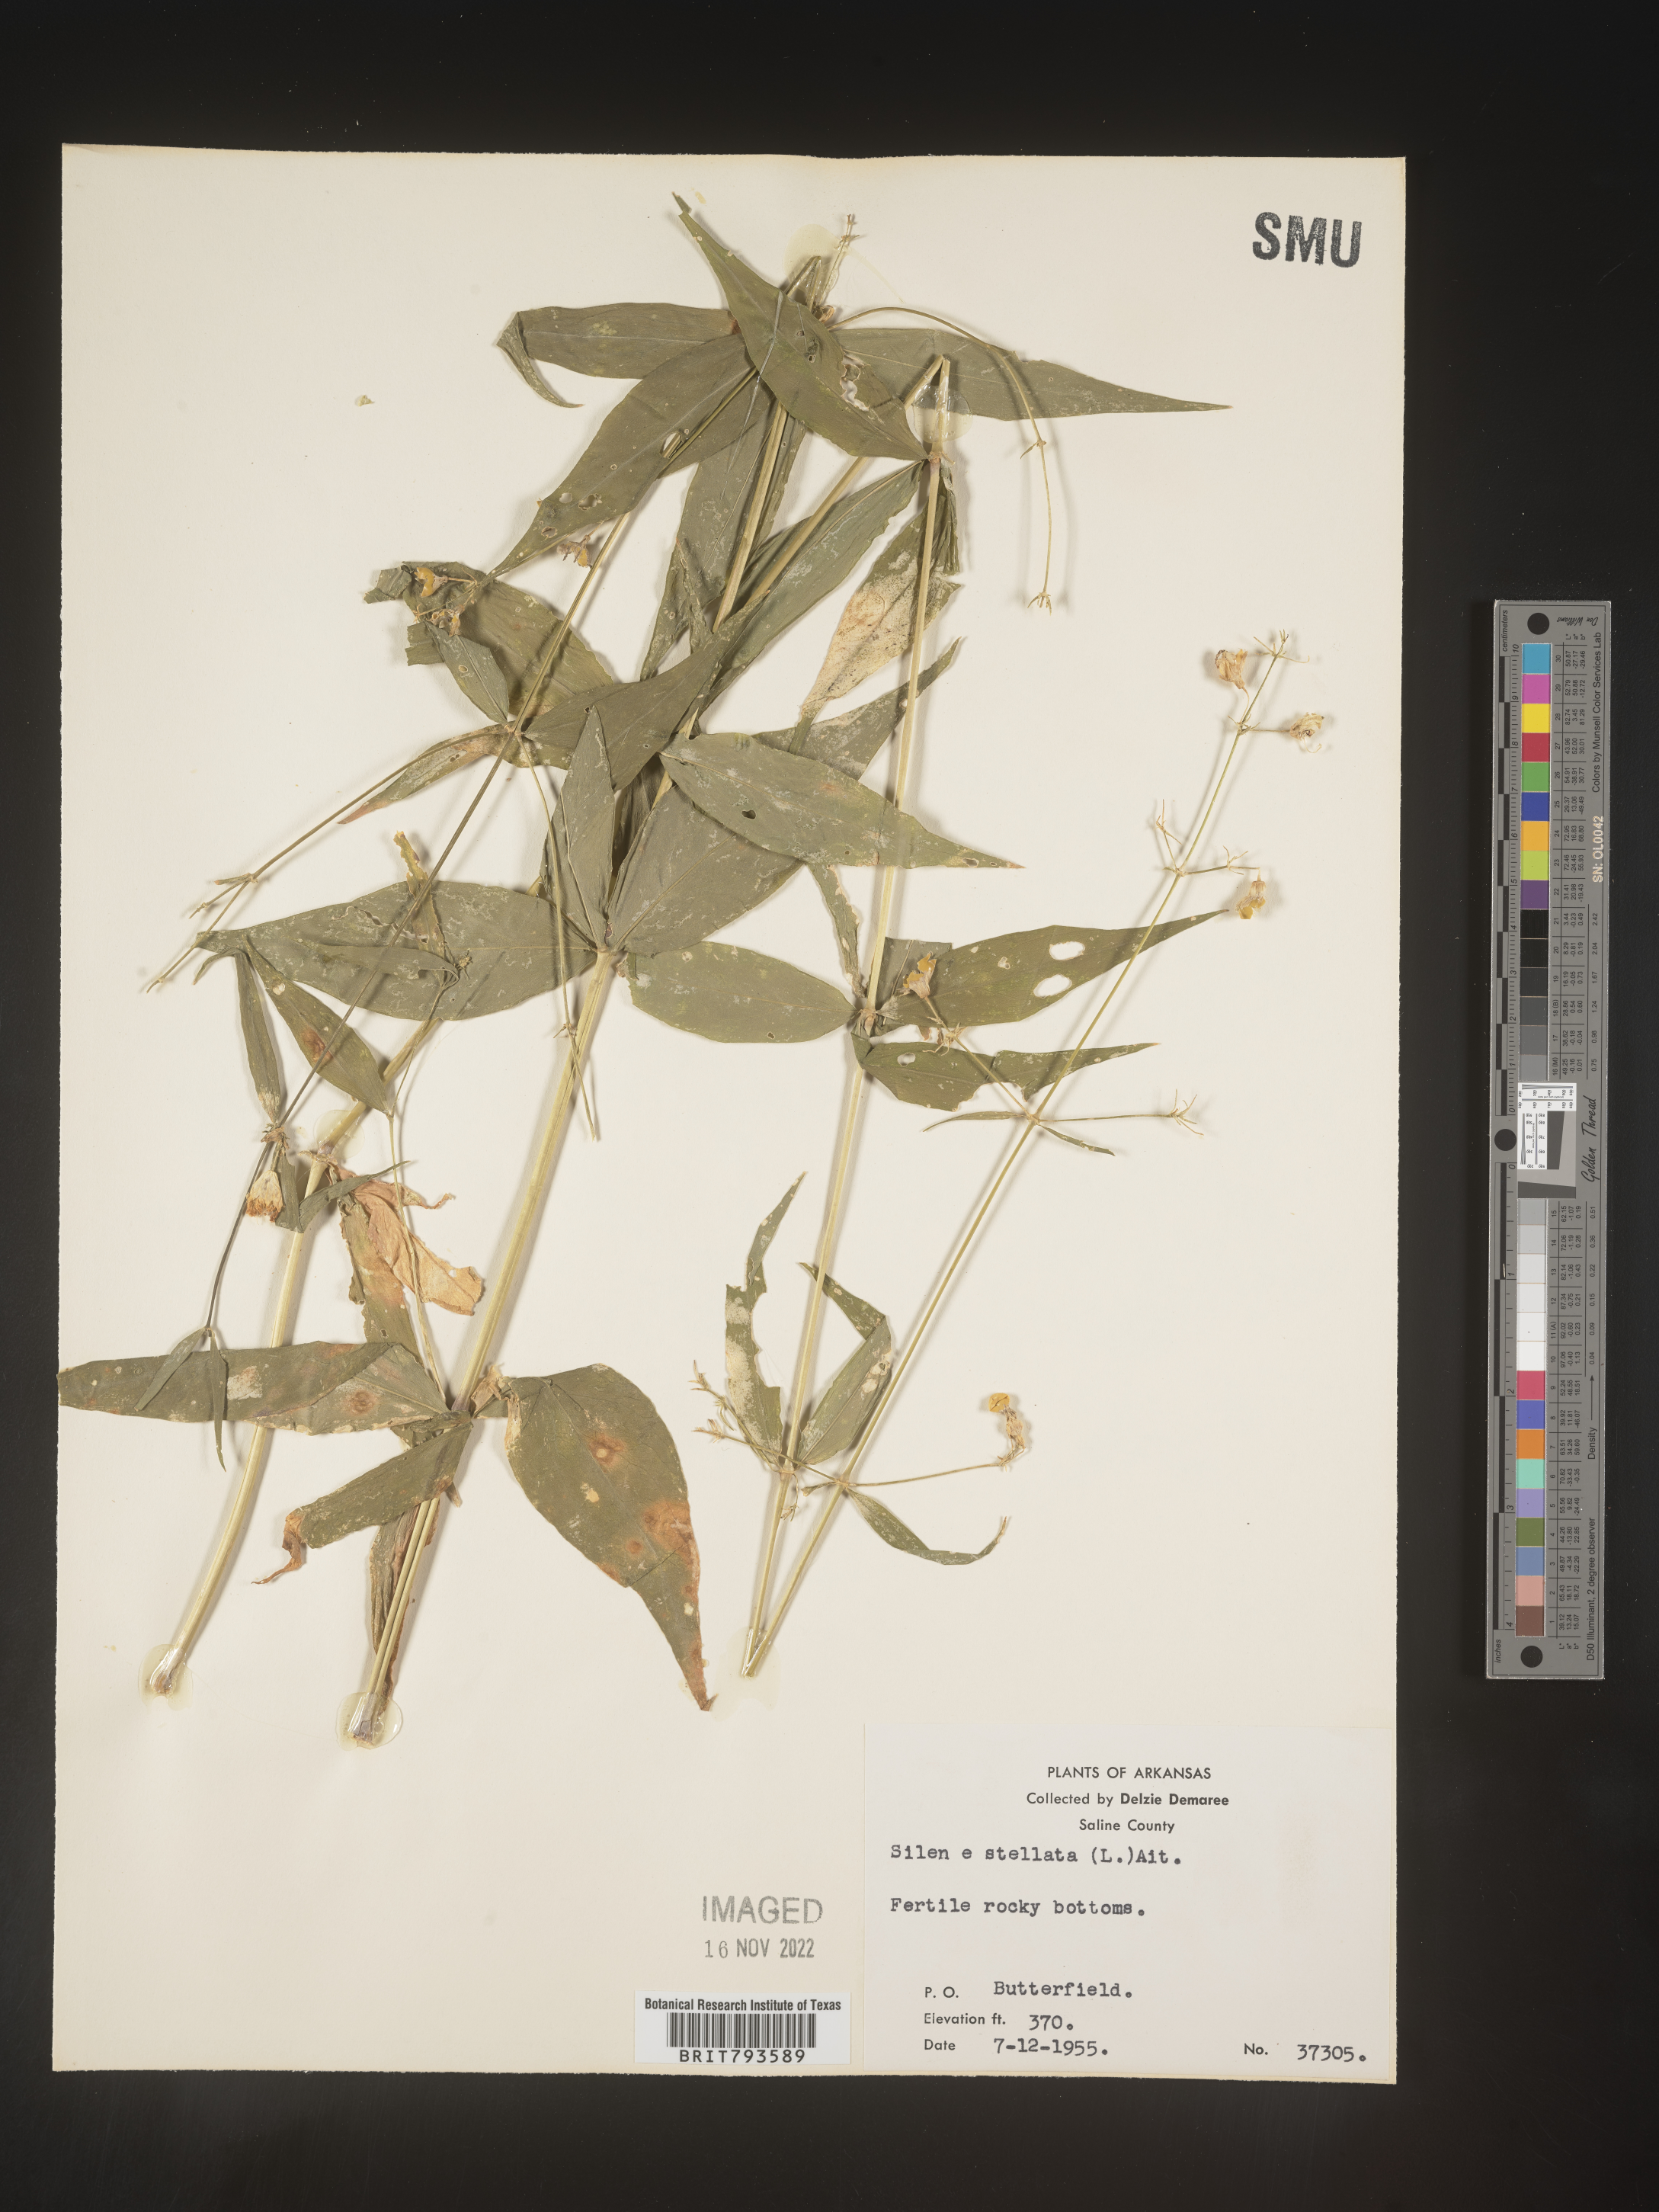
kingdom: Plantae
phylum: Tracheophyta
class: Magnoliopsida
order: Caryophyllales
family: Caryophyllaceae
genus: Silene
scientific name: Silene stellata
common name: Starry campion
